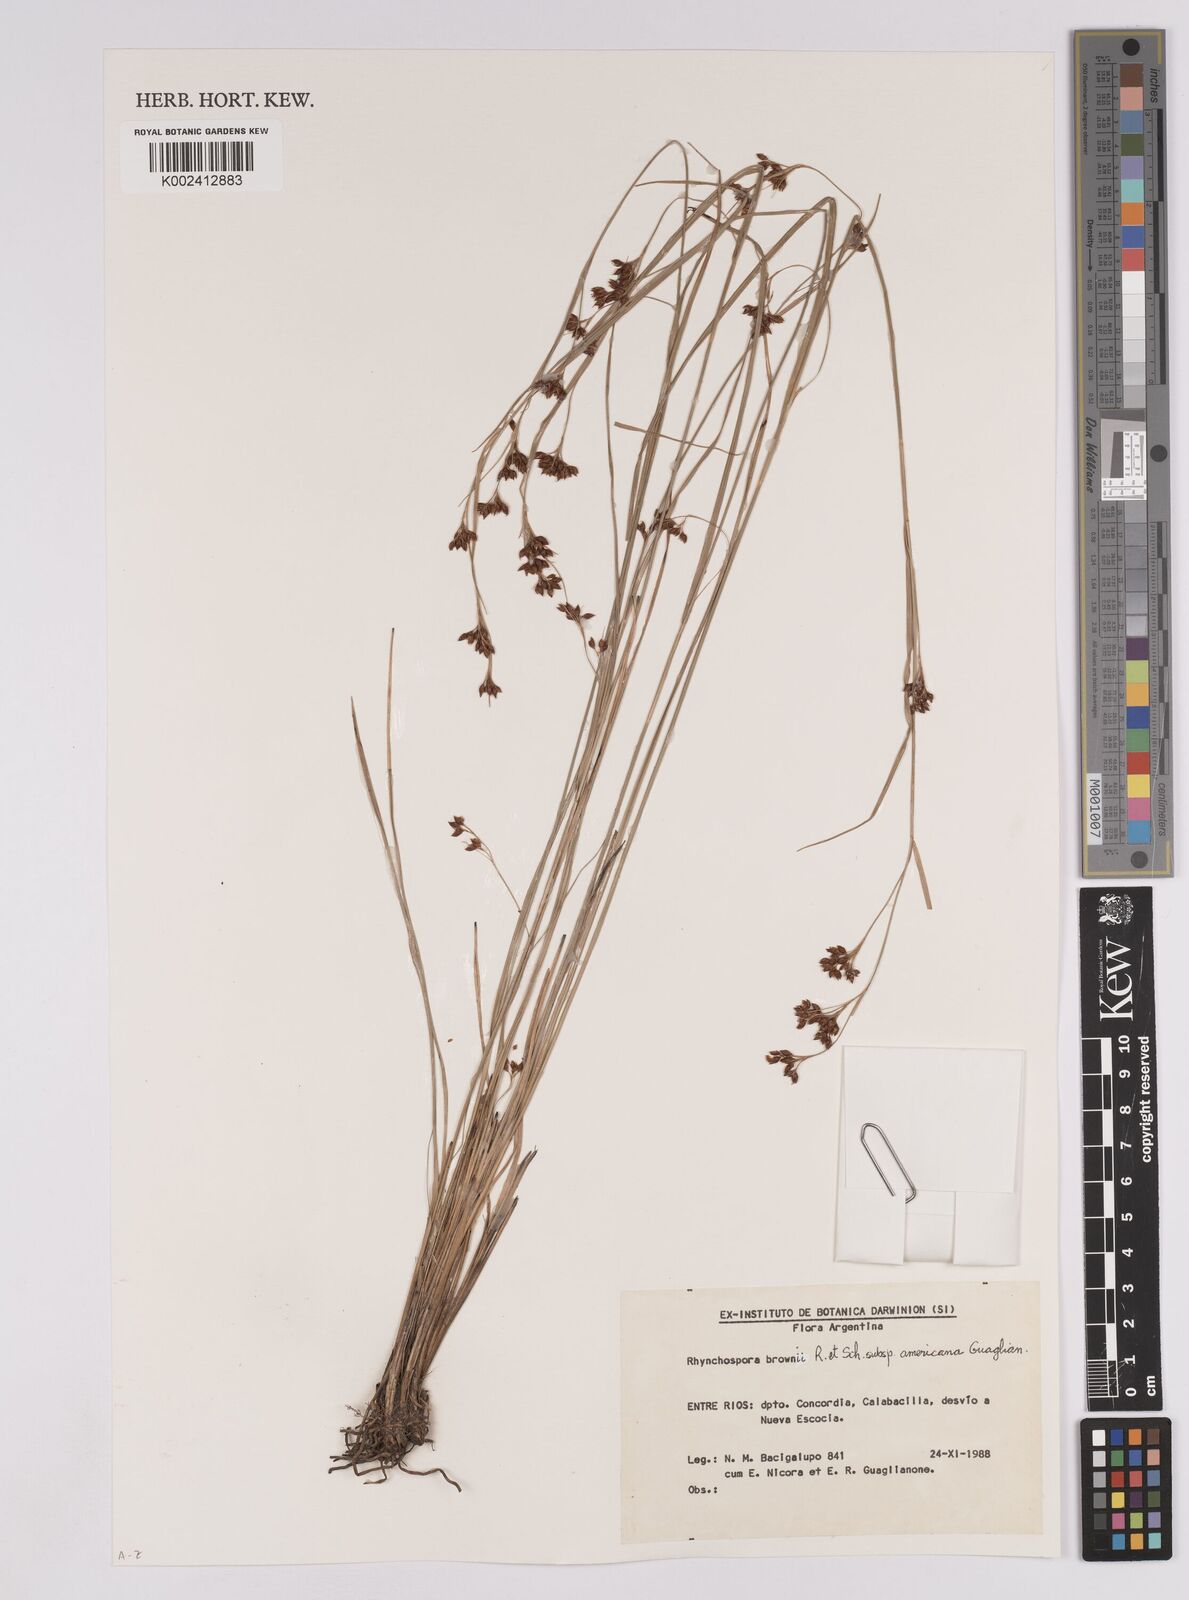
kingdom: Plantae
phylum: Tracheophyta
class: Liliopsida
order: Poales
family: Cyperaceae
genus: Rhynchospora
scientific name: Rhynchospora brownii
